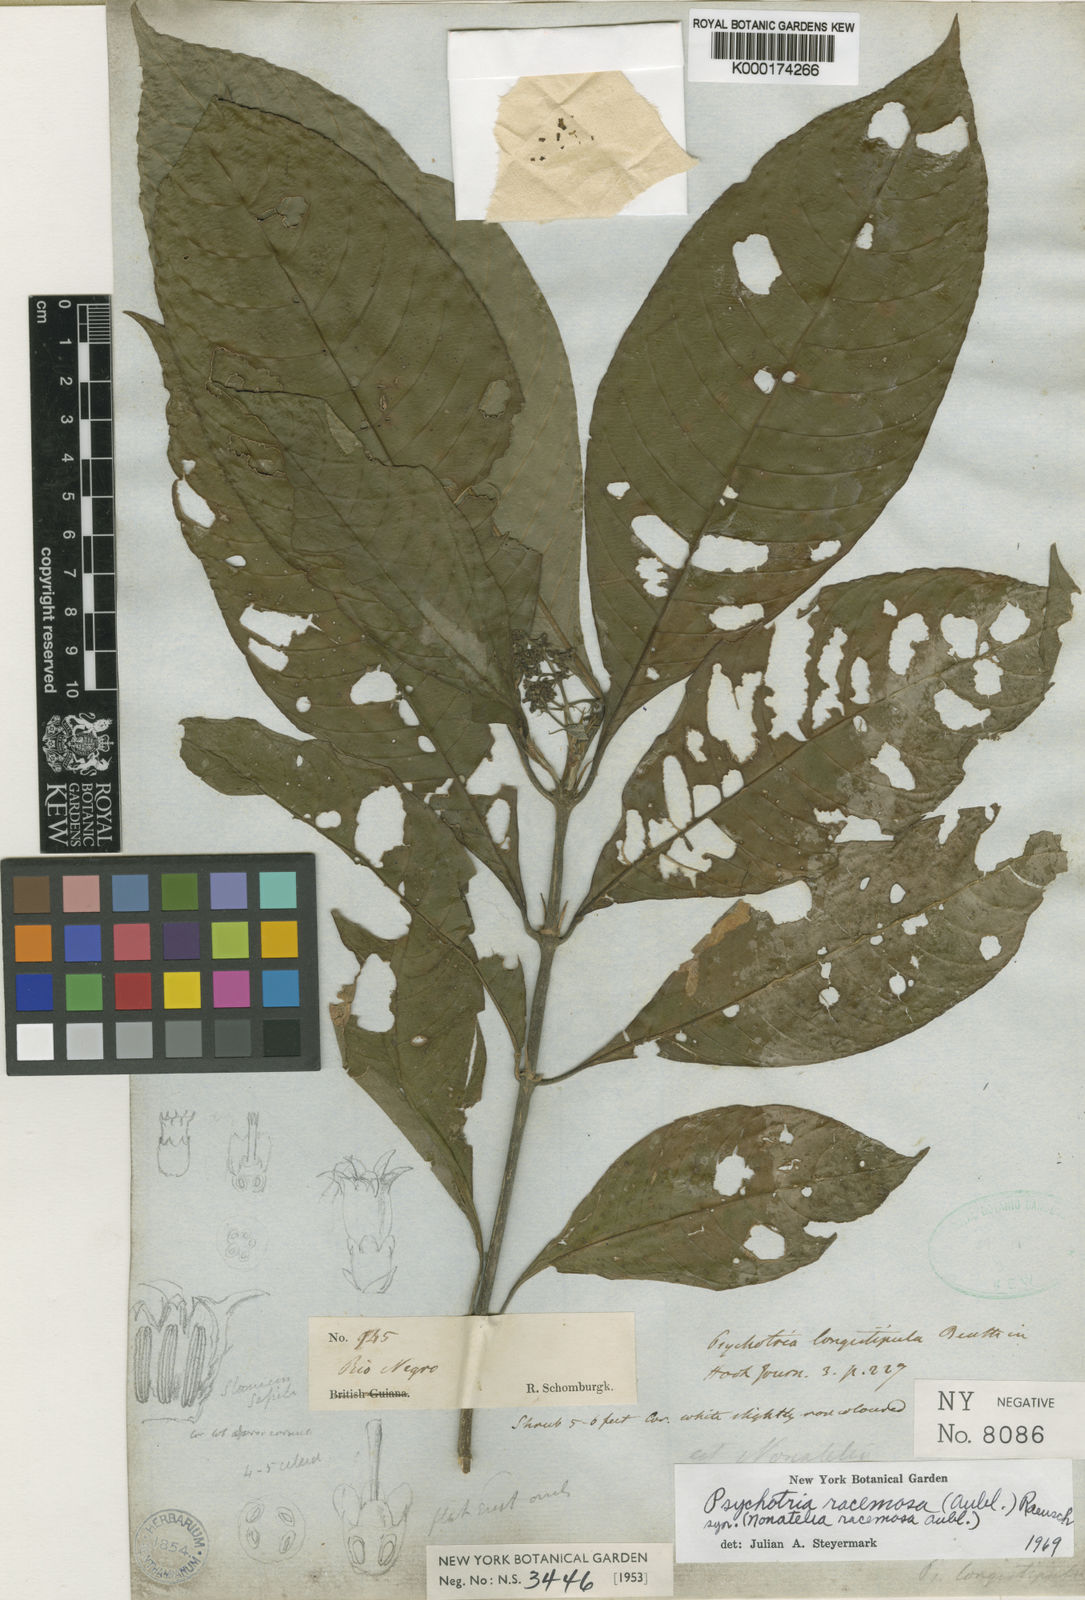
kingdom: Plantae
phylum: Tracheophyta
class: Magnoliopsida
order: Gentianales
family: Rubiaceae
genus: Psychotria
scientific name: Psychotria
